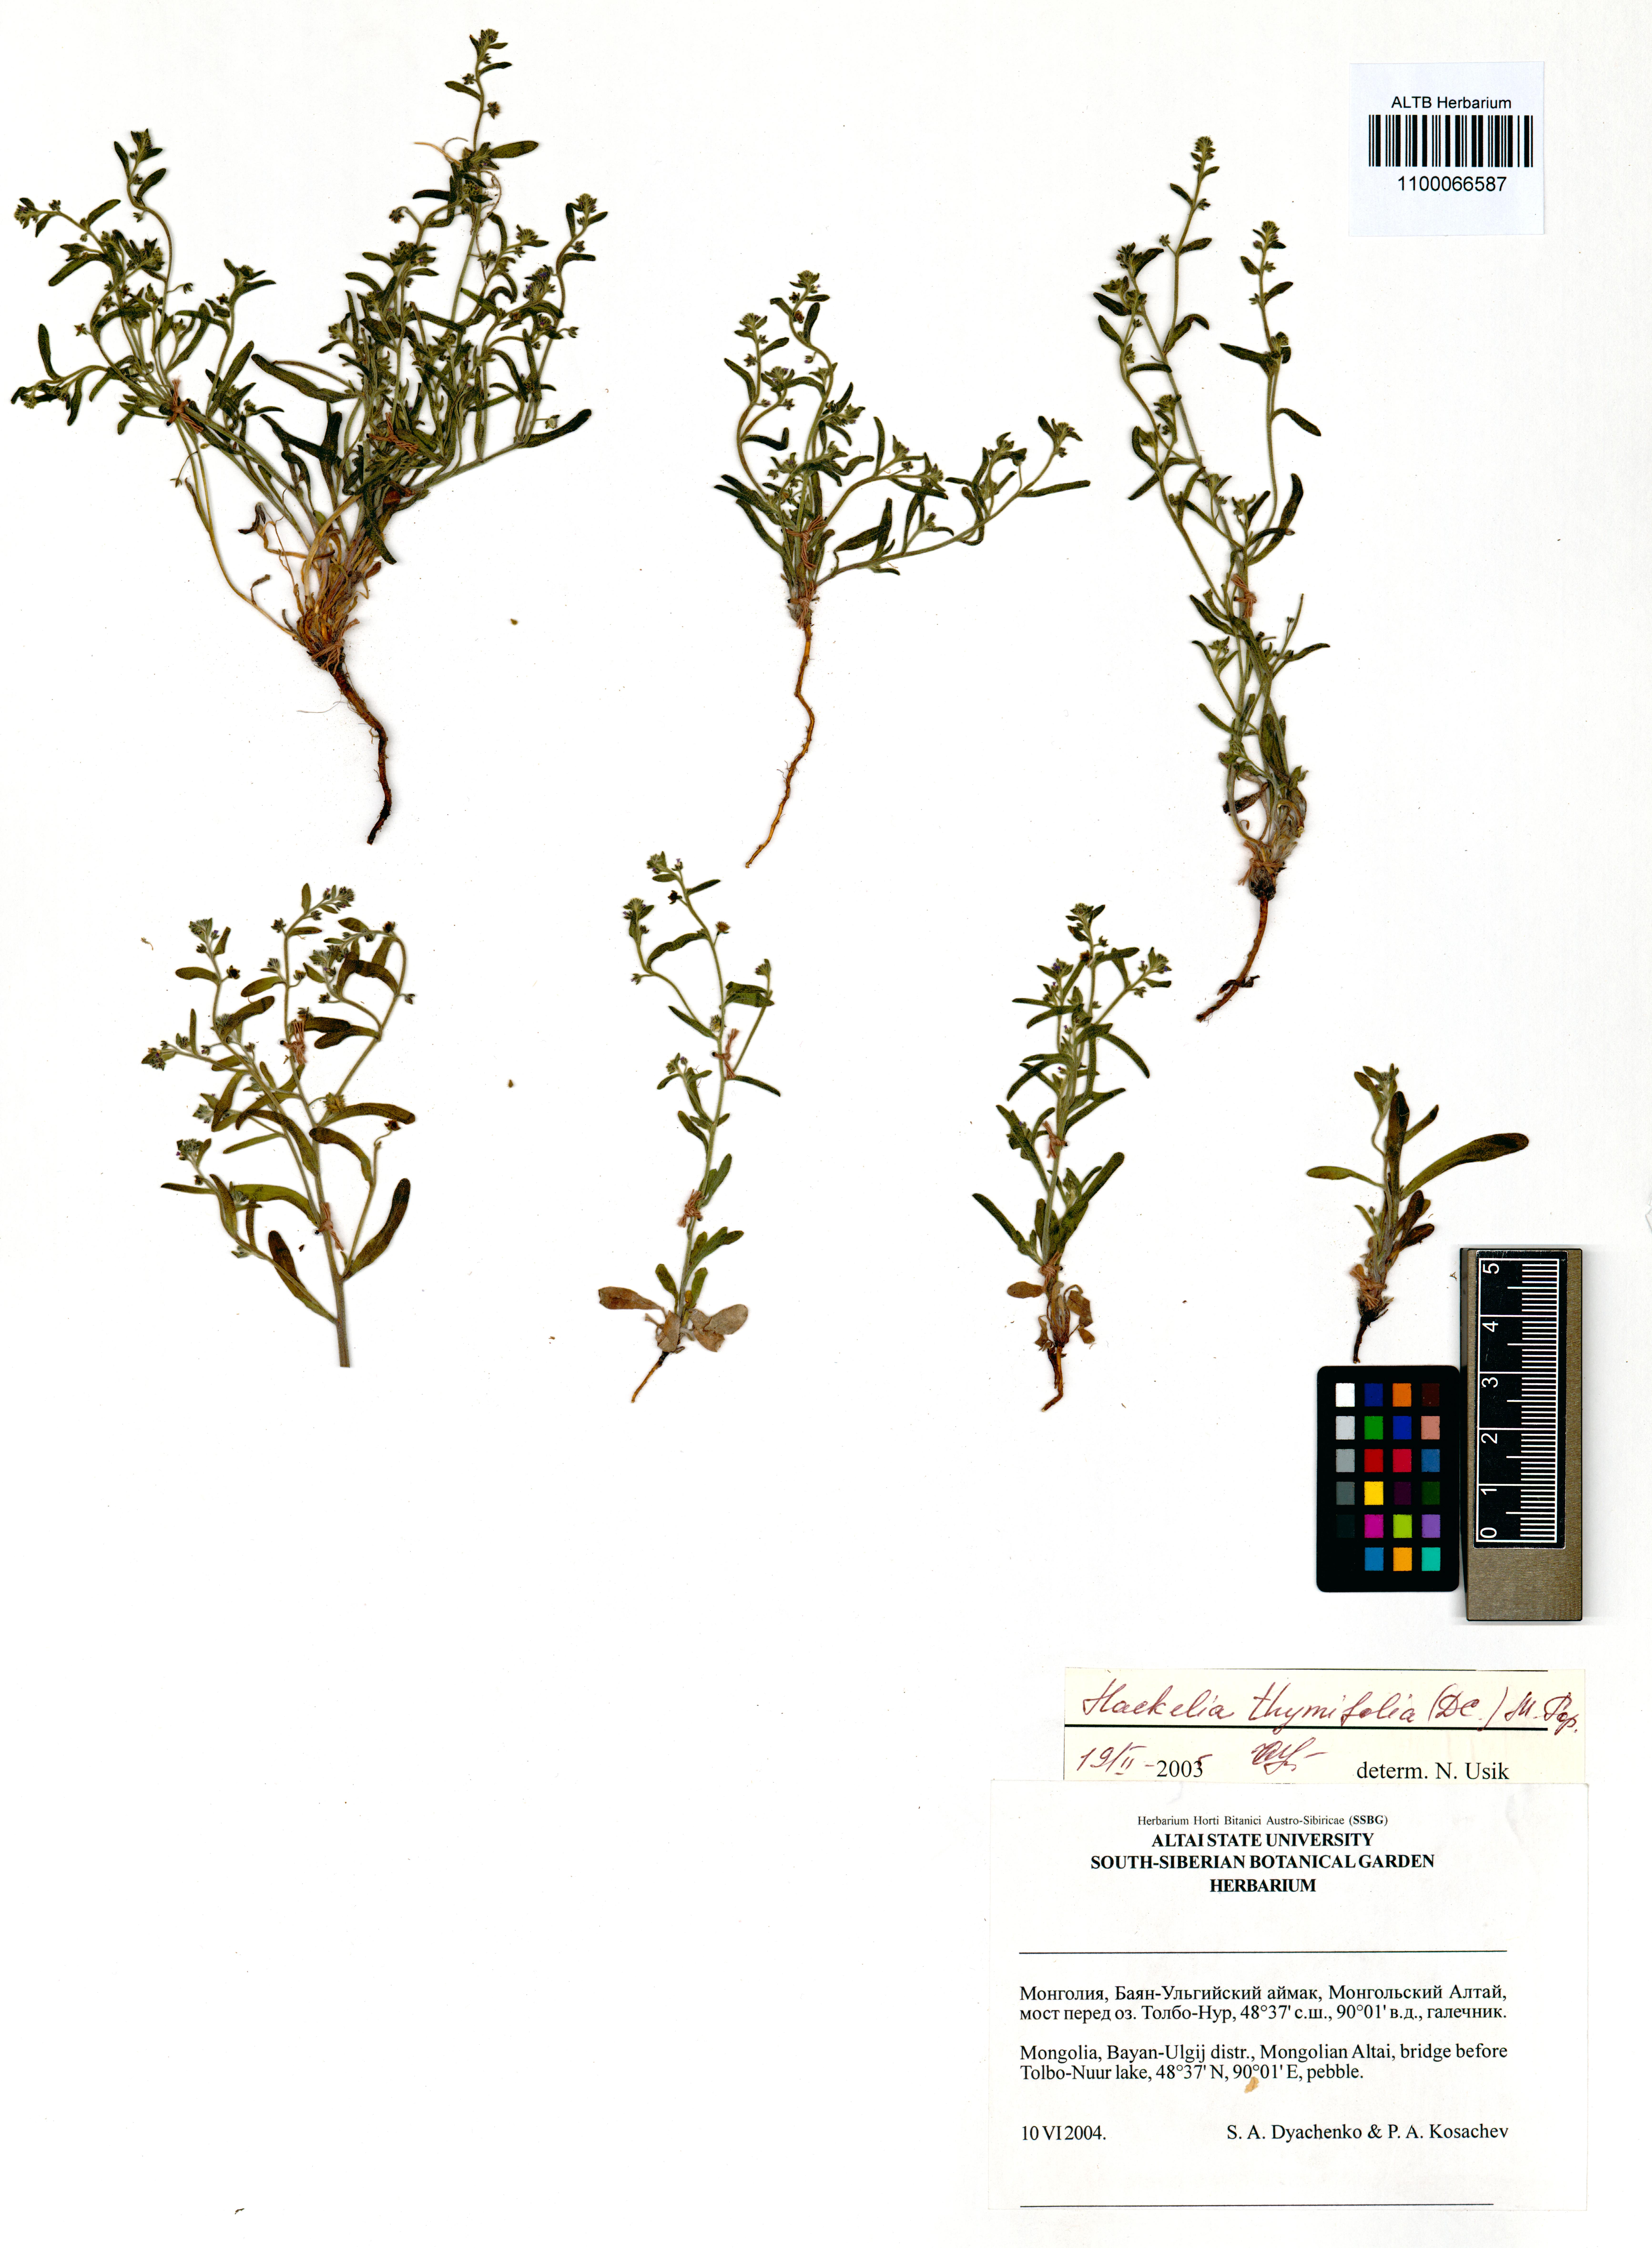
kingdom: Plantae
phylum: Tracheophyta
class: Magnoliopsida
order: Boraginales
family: Boraginaceae
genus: Eritrichium
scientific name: Eritrichium thymifolium
